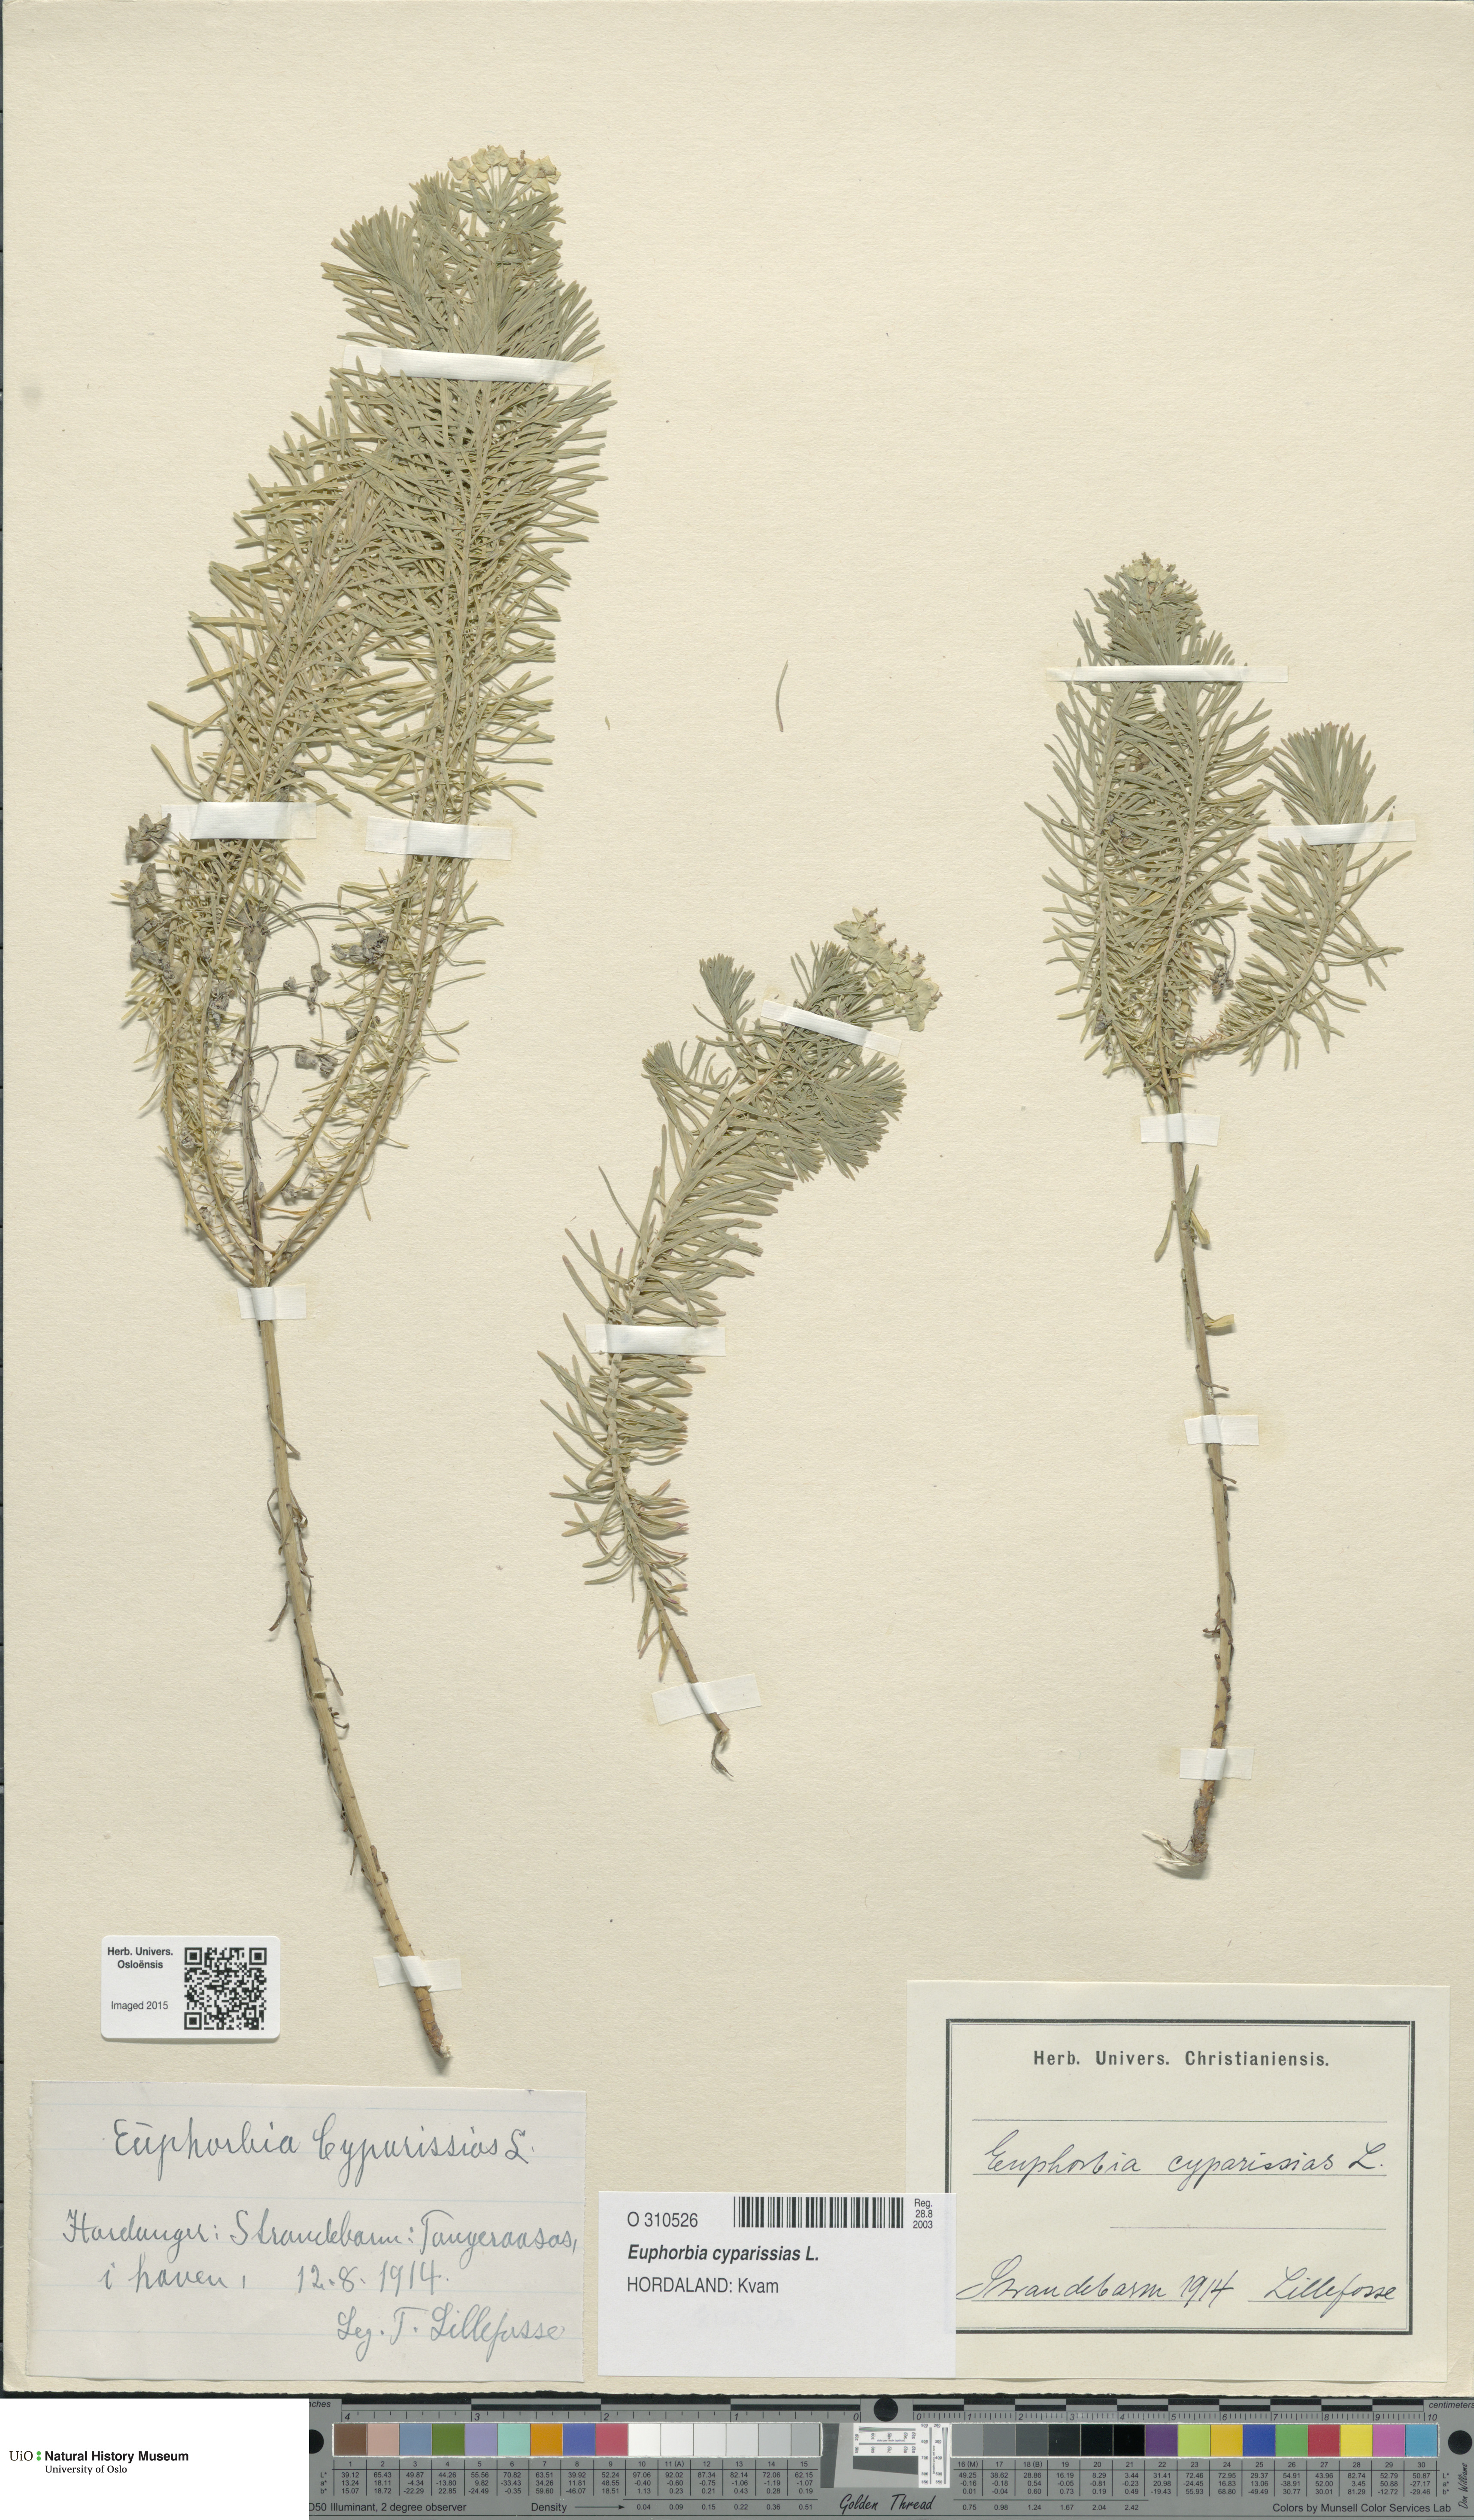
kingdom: Plantae
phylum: Tracheophyta
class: Magnoliopsida
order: Malpighiales
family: Euphorbiaceae
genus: Euphorbia
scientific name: Euphorbia cyparissias
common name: Cypress spurge
